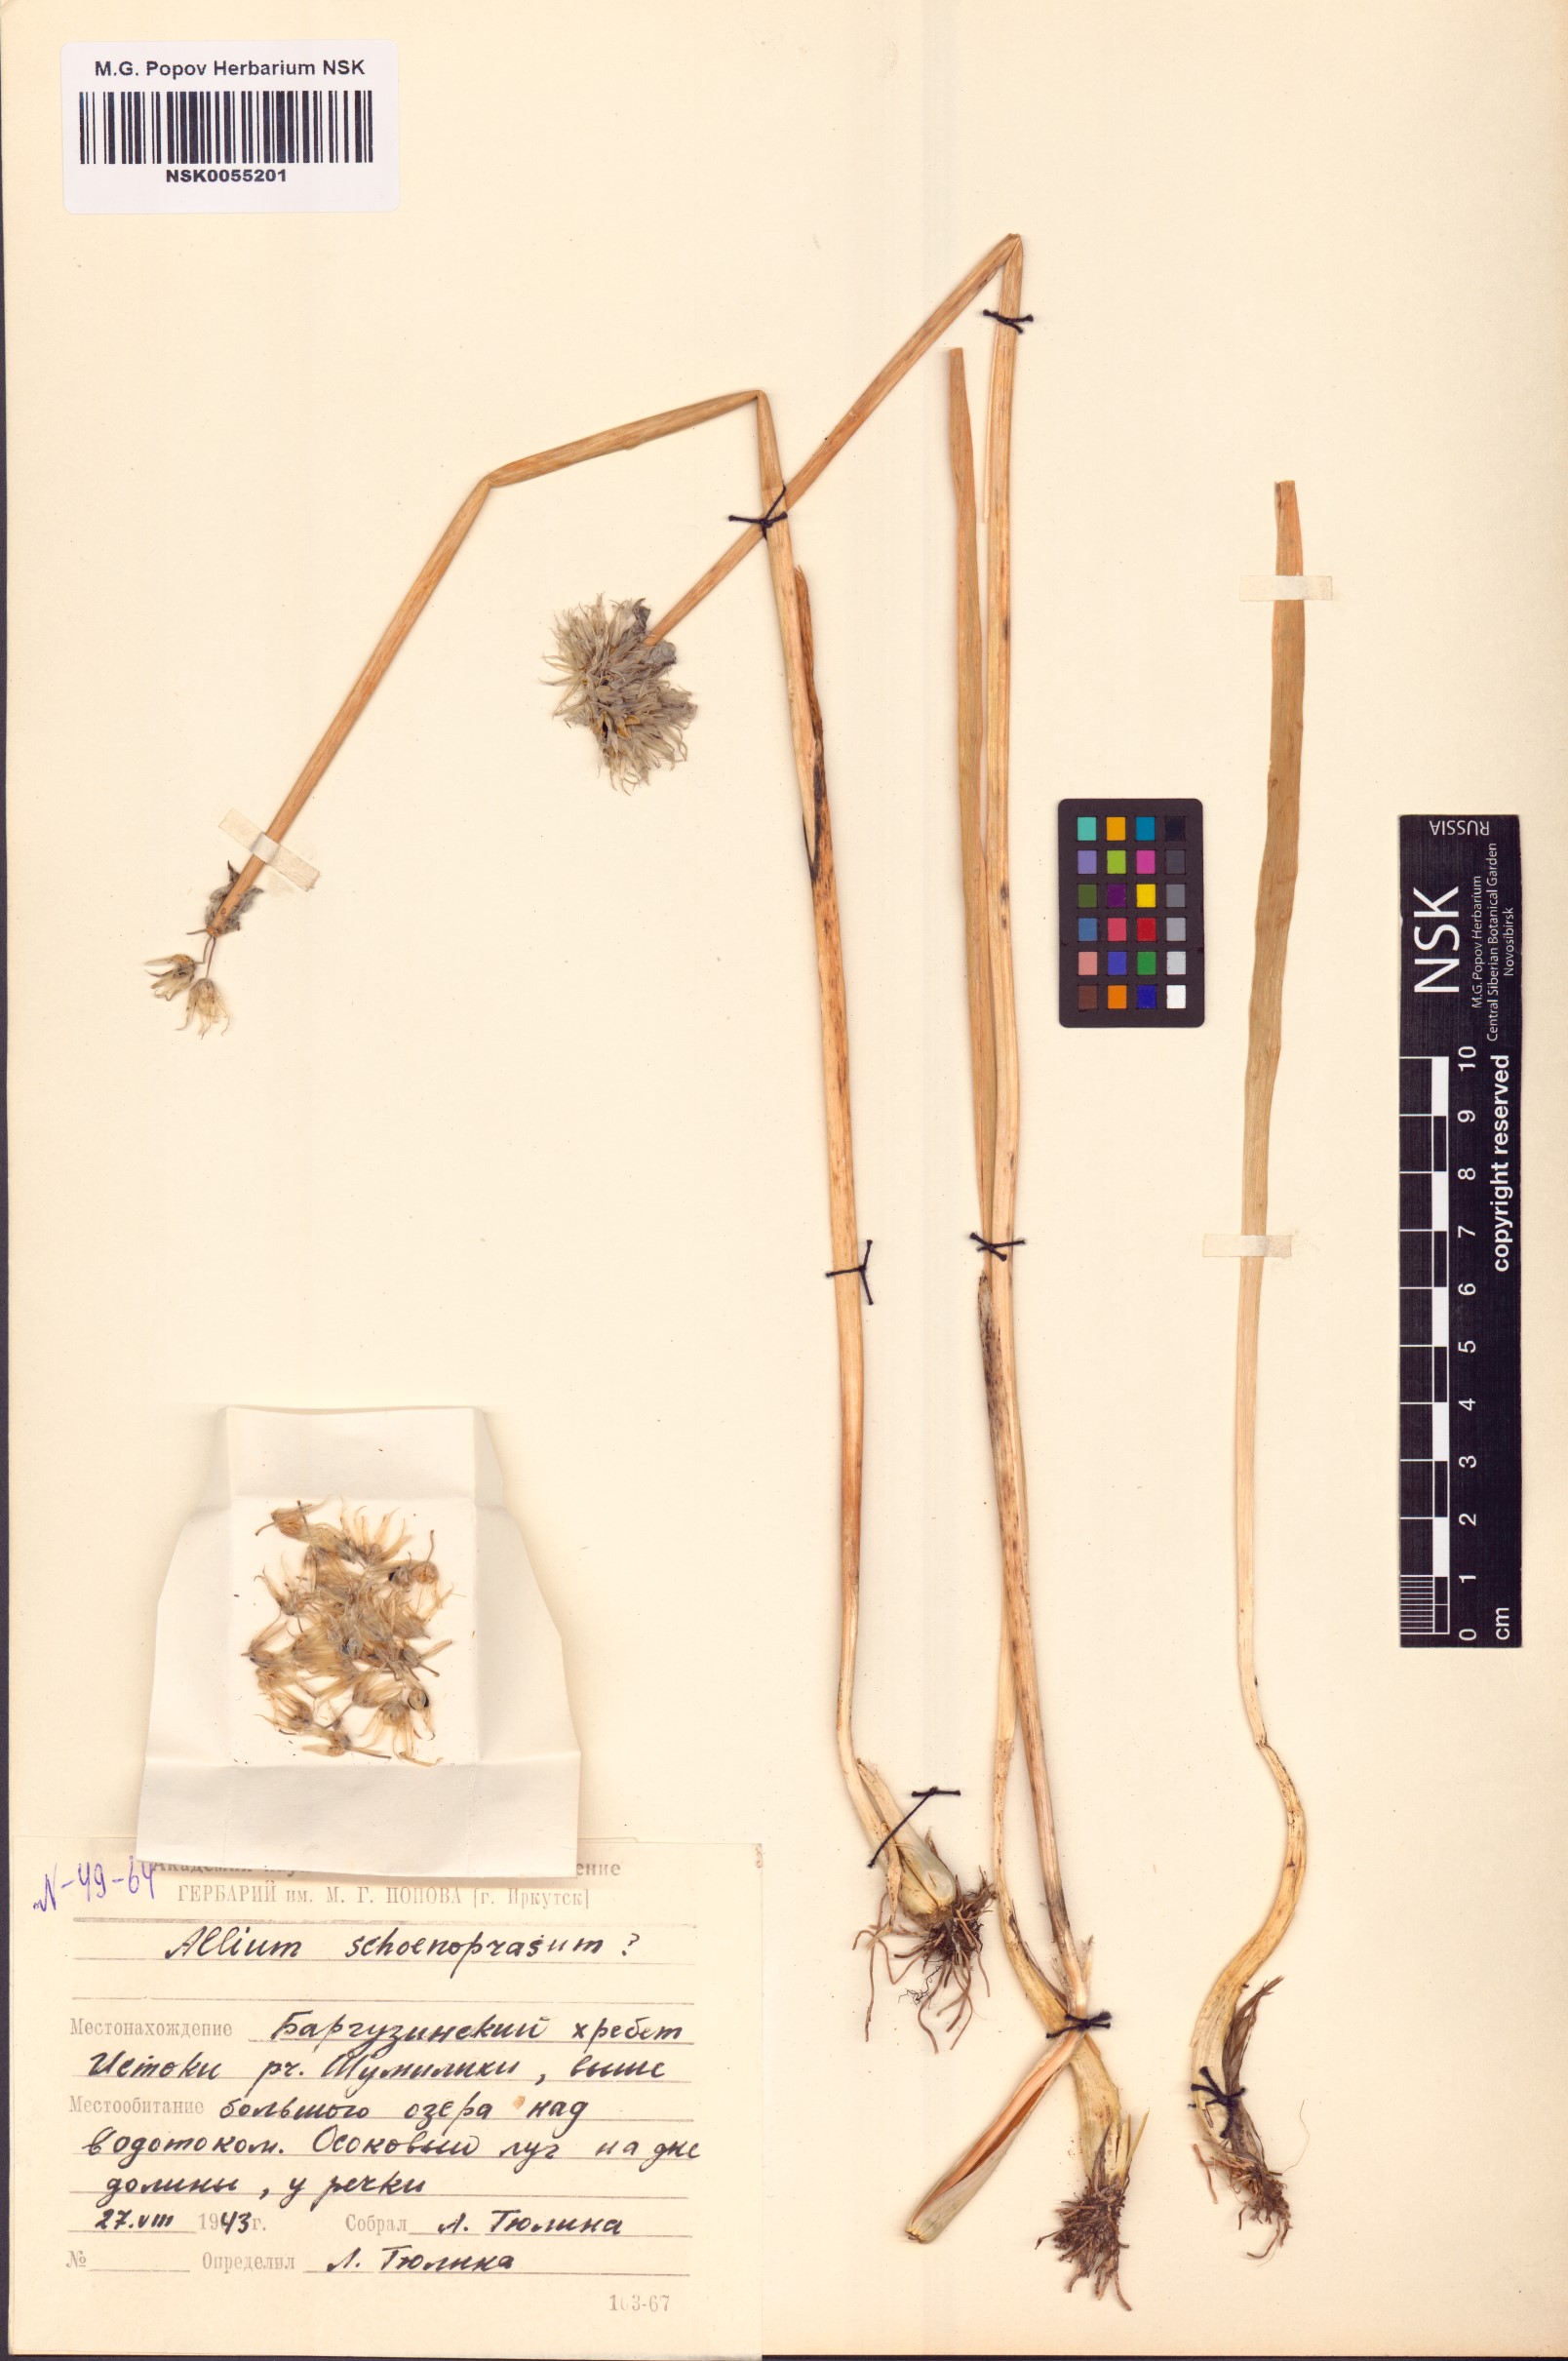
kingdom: Plantae
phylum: Tracheophyta
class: Liliopsida
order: Asparagales
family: Amaryllidaceae
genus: Allium
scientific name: Allium schoenoprasum
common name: Chives
